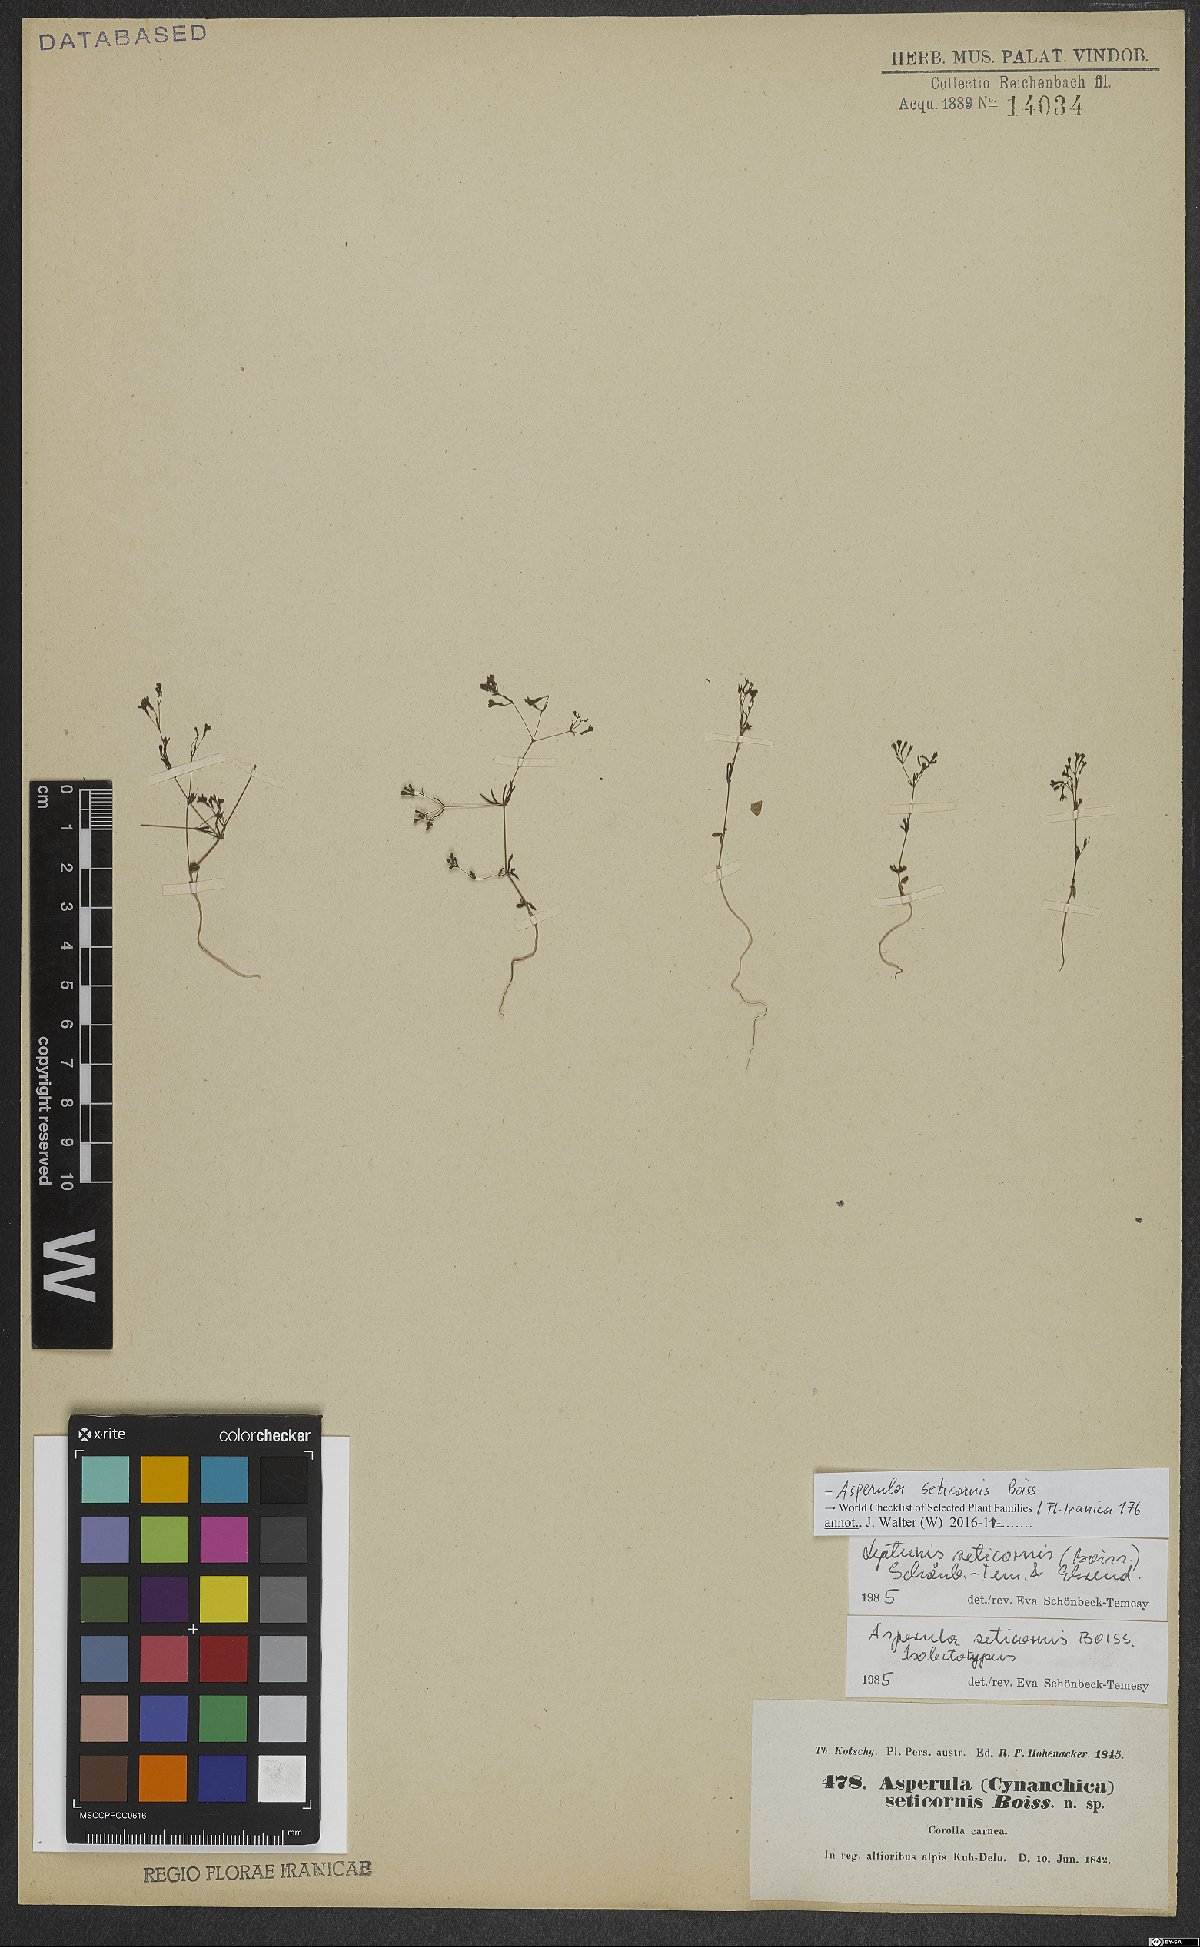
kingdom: Plantae
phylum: Tracheophyta
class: Magnoliopsida
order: Gentianales
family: Rubiaceae
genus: Asperula
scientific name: Asperula seticornis
